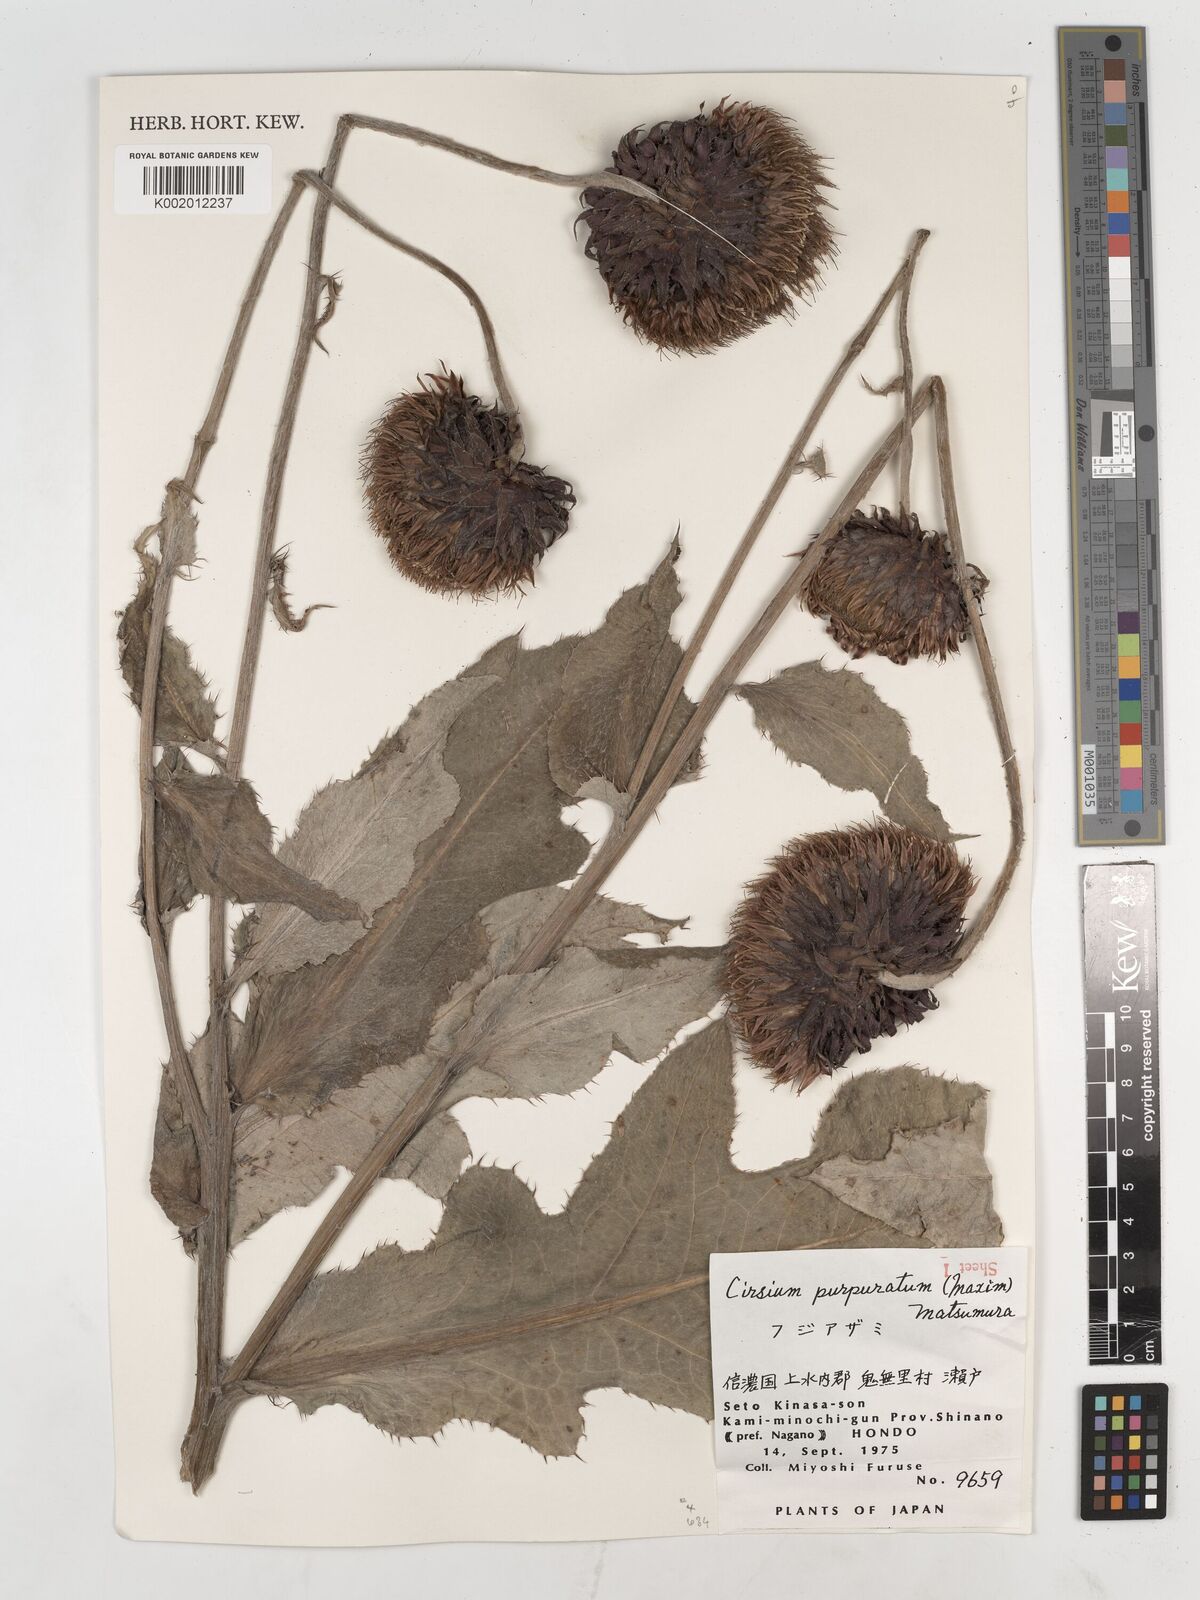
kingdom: Plantae
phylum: Tracheophyta
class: Magnoliopsida
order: Asterales
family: Asteraceae
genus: Cirsium
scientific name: Cirsium purpuratum
